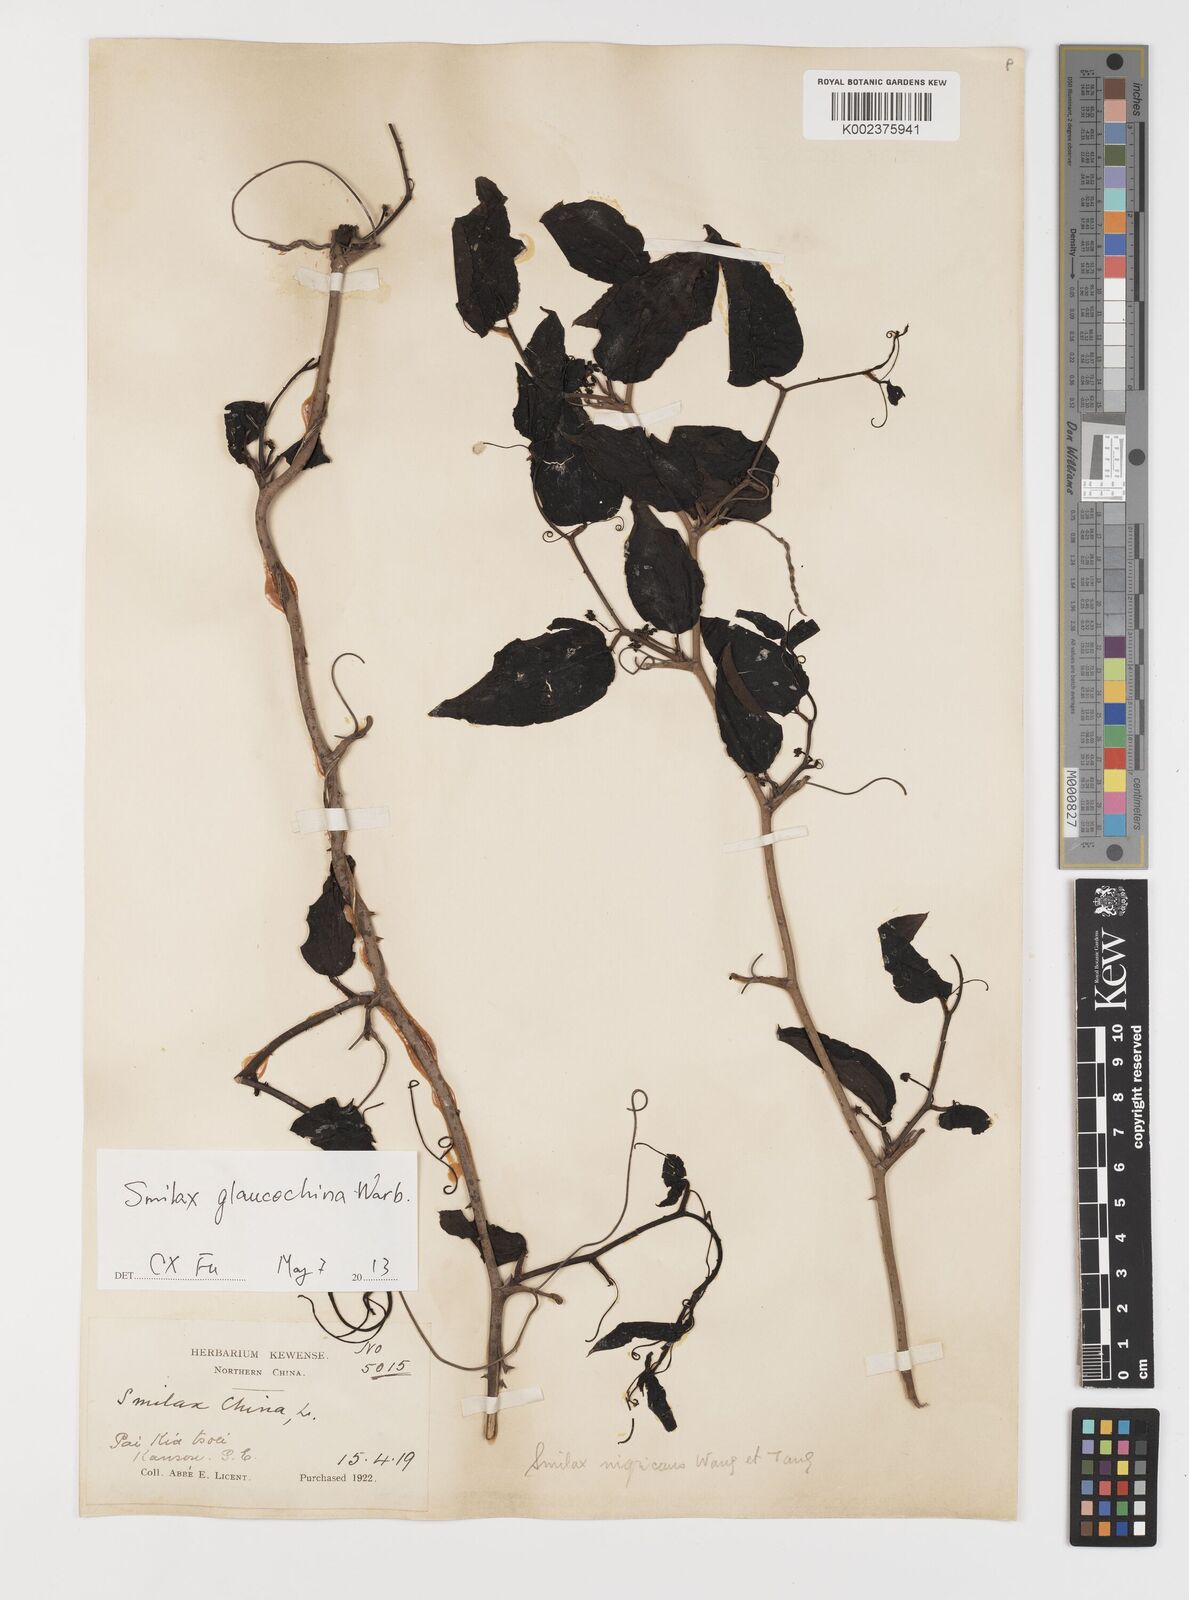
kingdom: Plantae
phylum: Tracheophyta
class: Liliopsida
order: Liliales
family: Smilacaceae
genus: Smilax
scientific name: Smilax glaucochina
